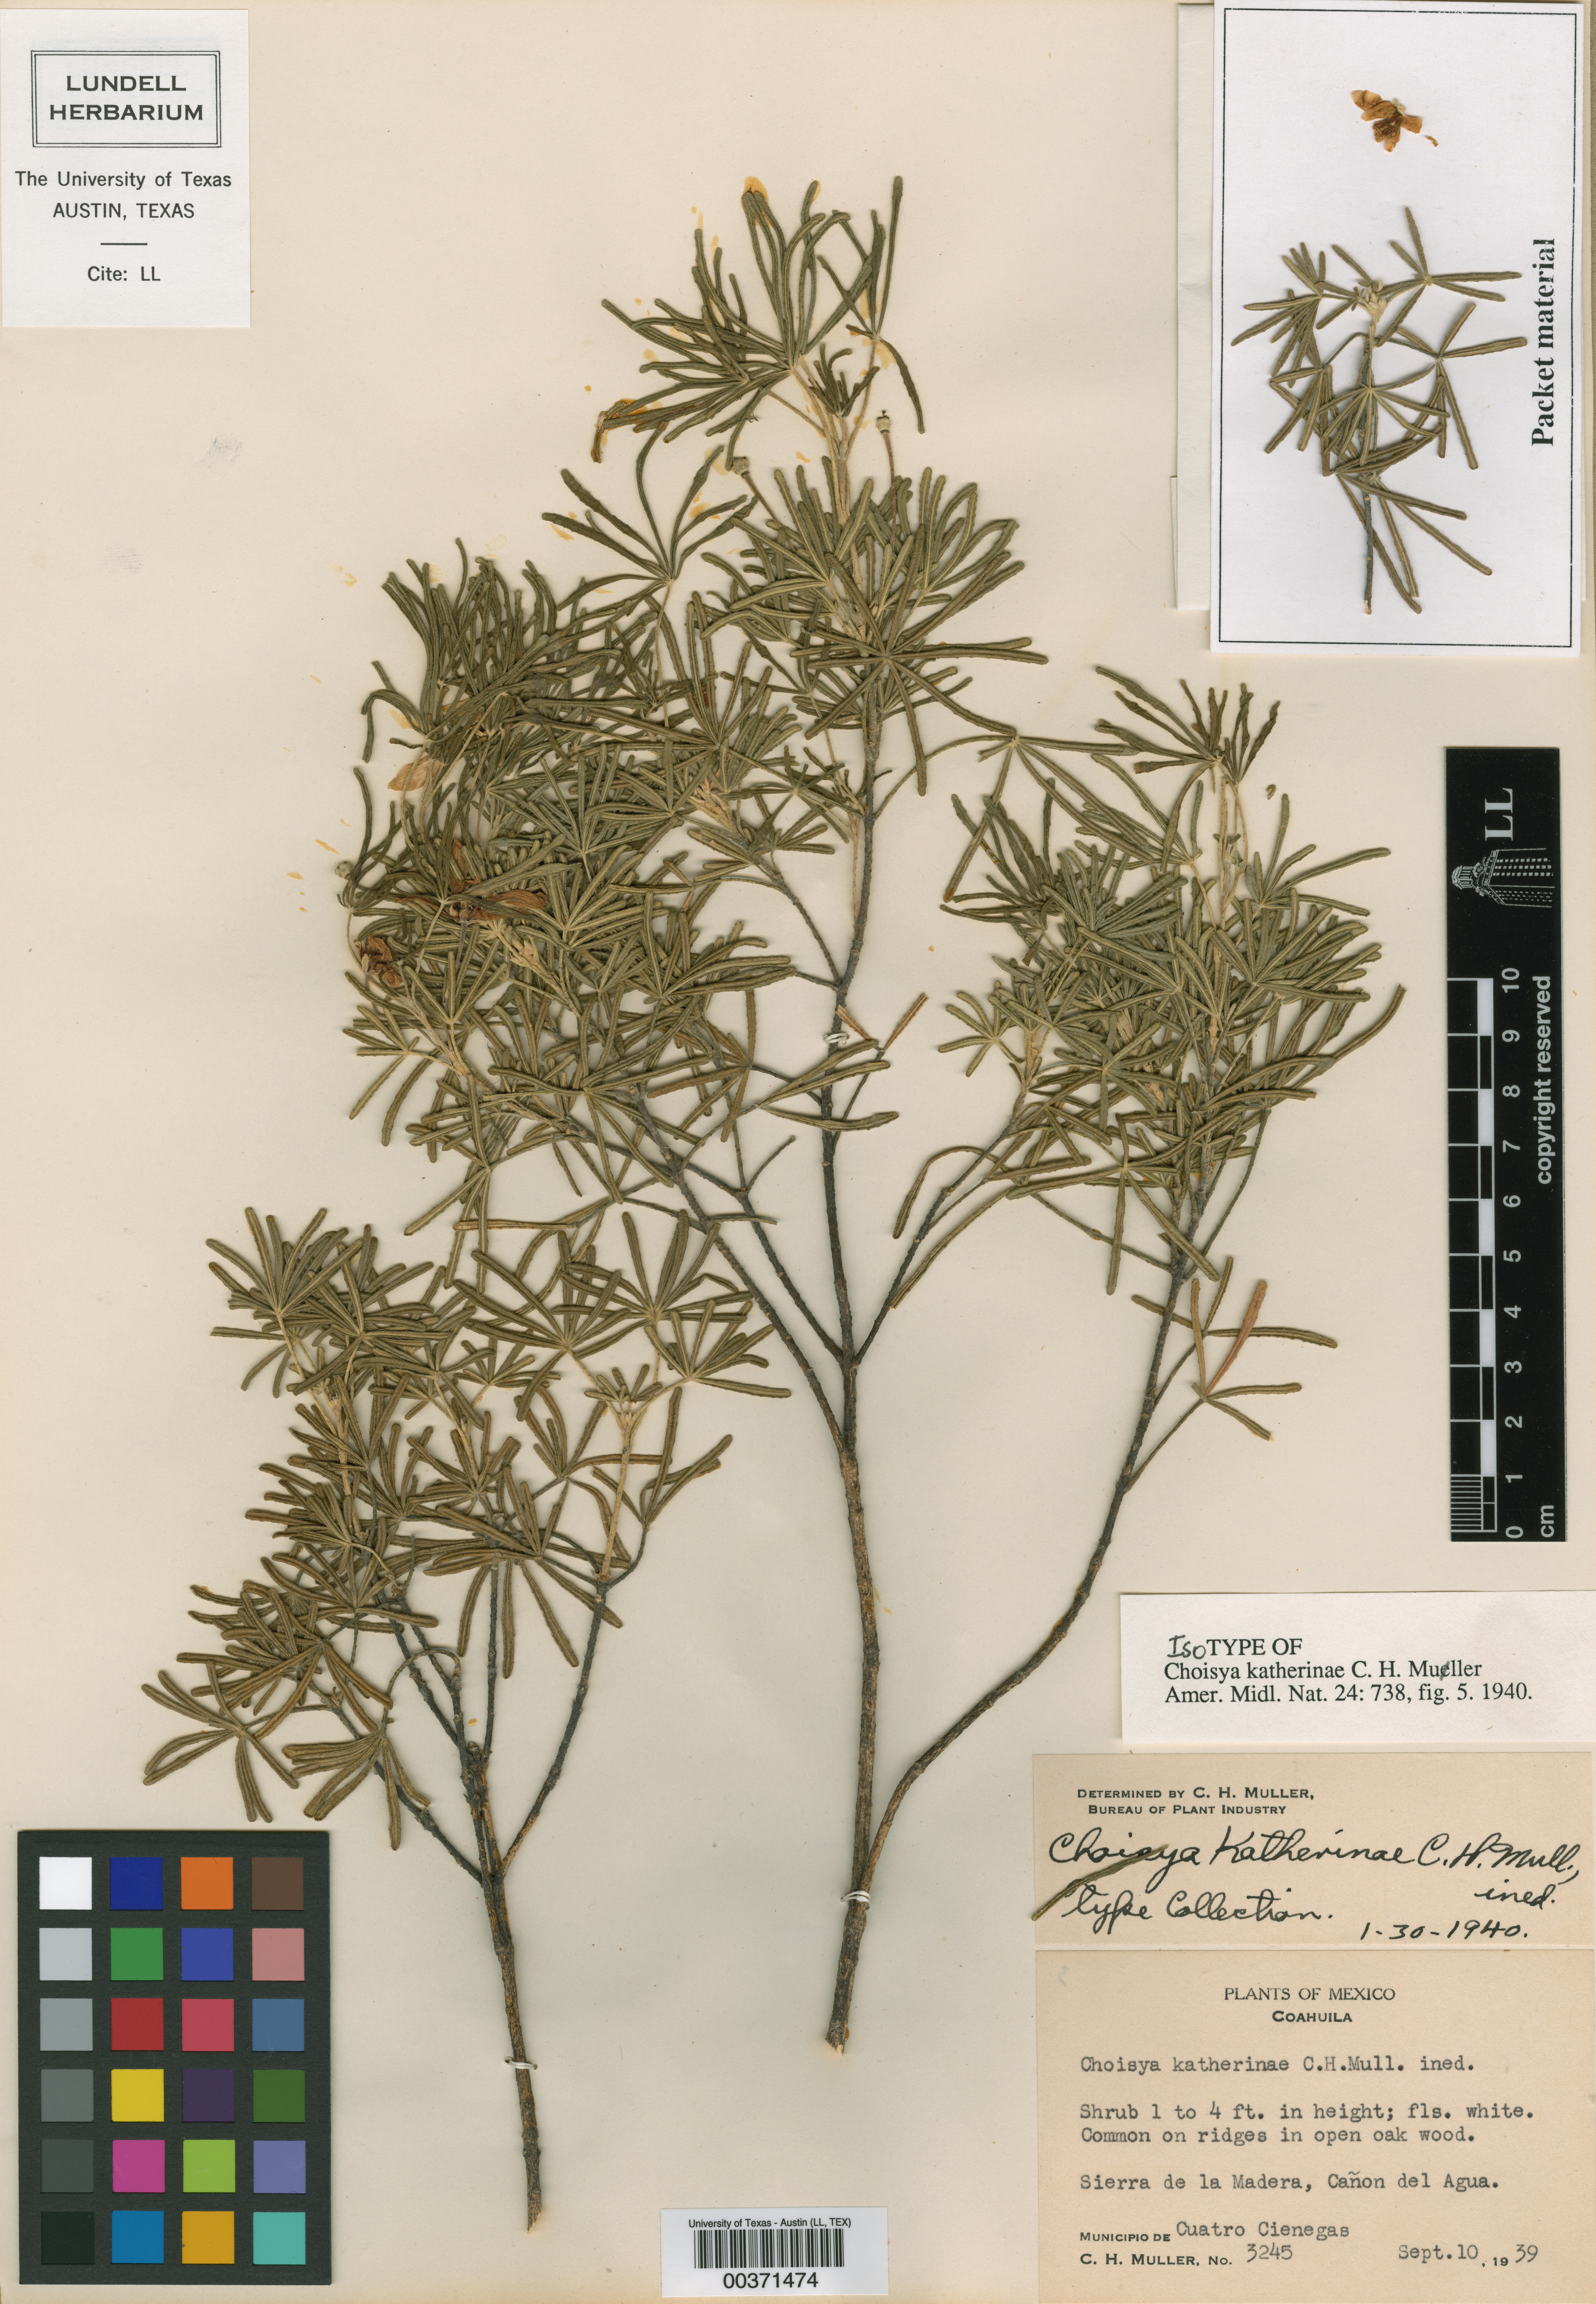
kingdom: Plantae
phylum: Tracheophyta
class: Magnoliopsida
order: Sapindales
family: Rutaceae
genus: Choisya
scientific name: Choisya katherinae
